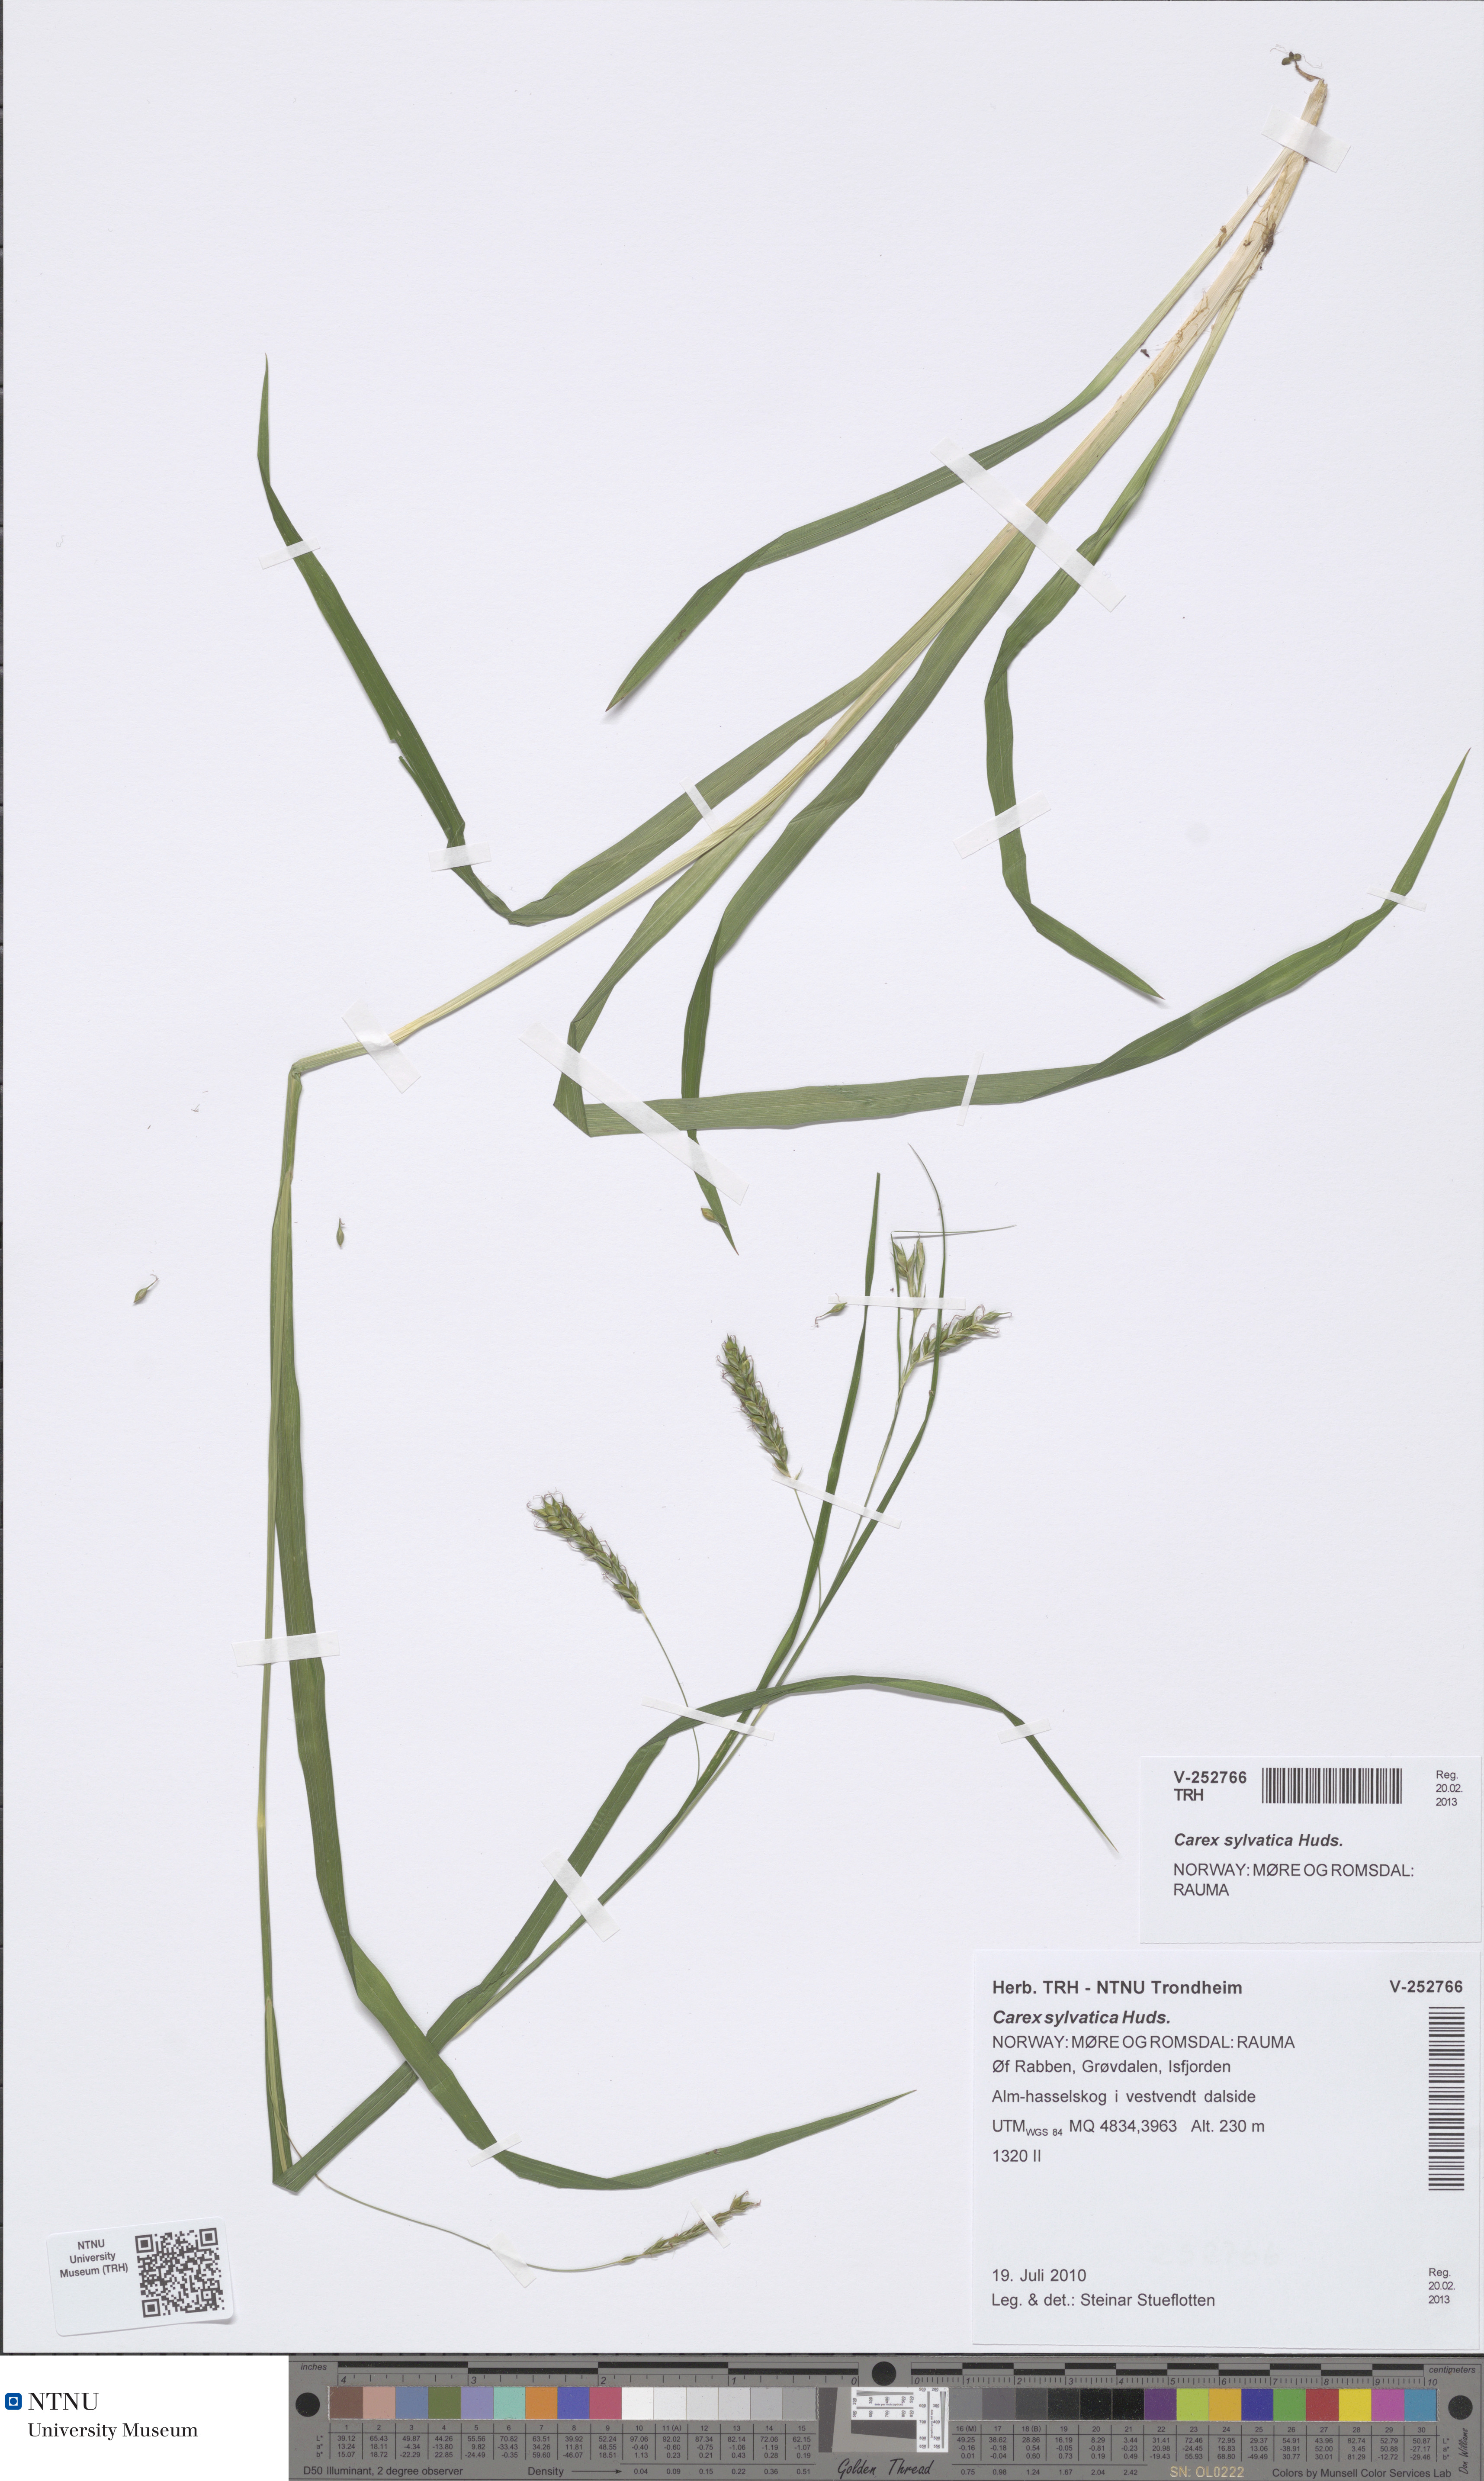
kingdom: Plantae
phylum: Tracheophyta
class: Liliopsida
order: Poales
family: Cyperaceae
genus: Carex
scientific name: Carex sylvatica
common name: Wood-sedge
